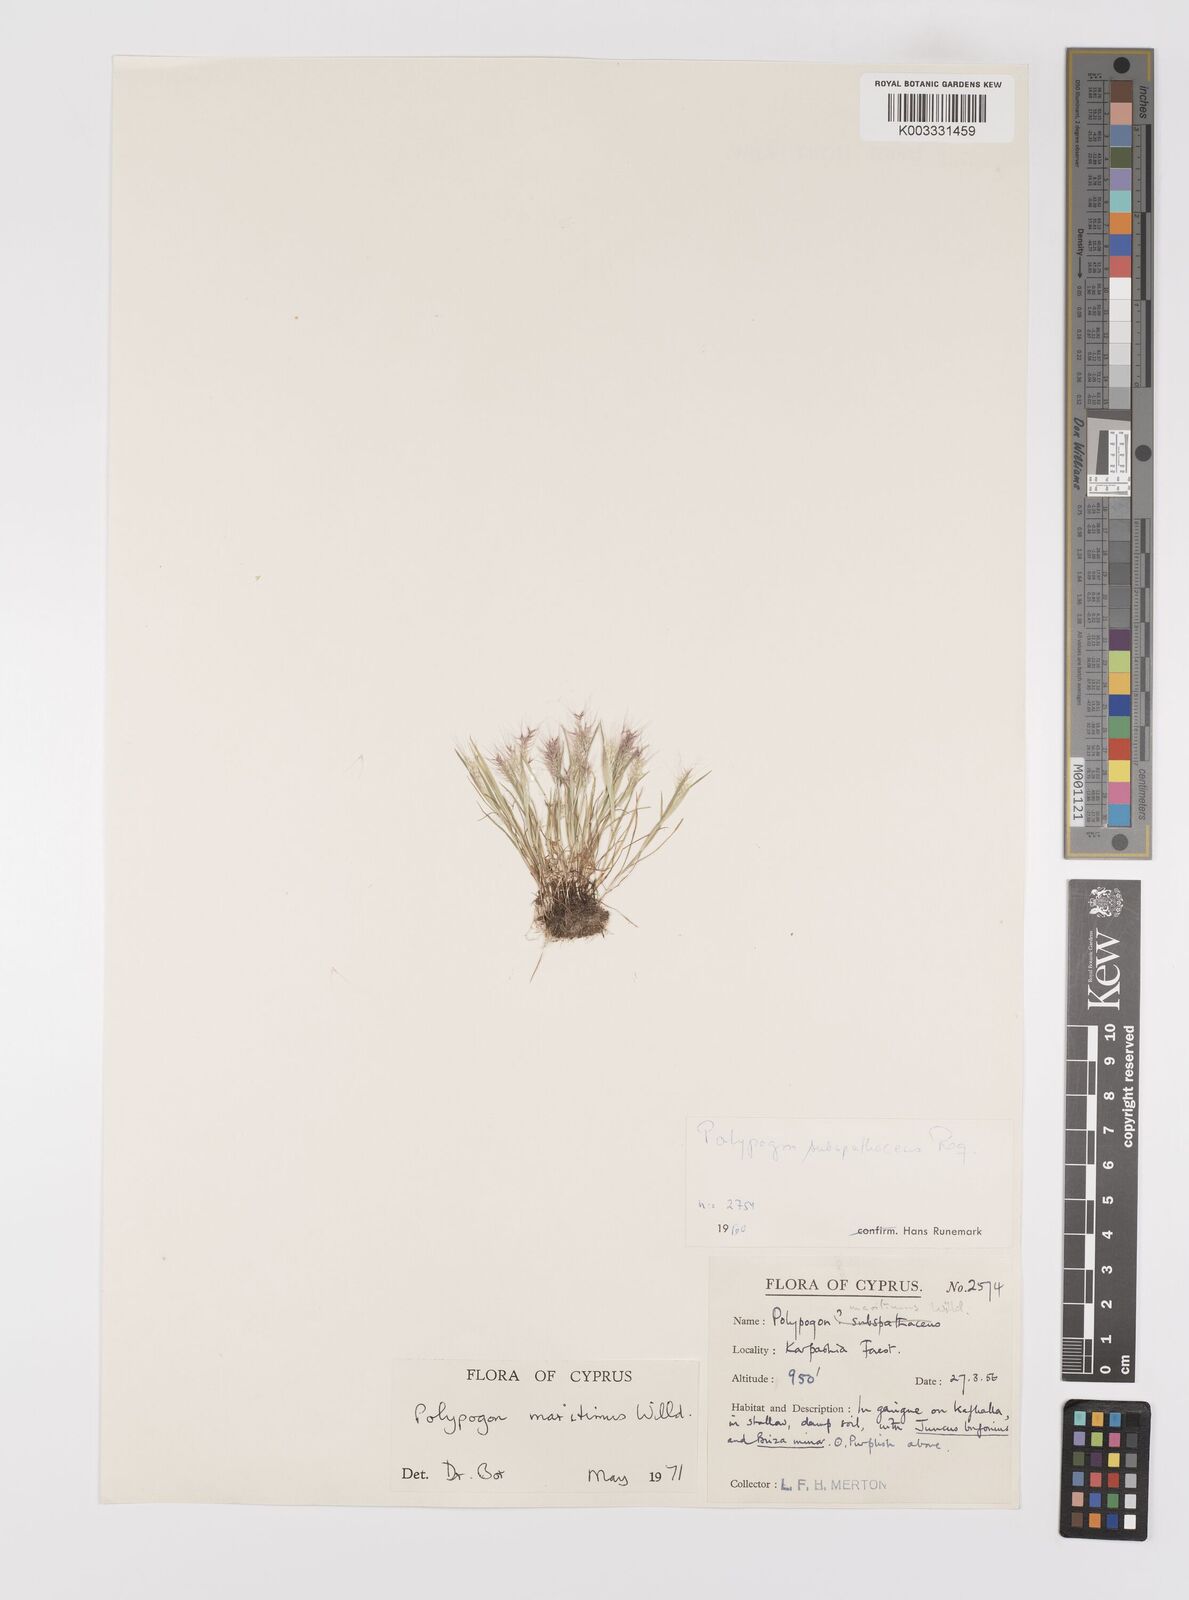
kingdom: Plantae
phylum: Tracheophyta
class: Liliopsida
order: Poales
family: Poaceae
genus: Polypogon
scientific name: Polypogon maritimus
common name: Mediterranean rabbitsfoot grass
